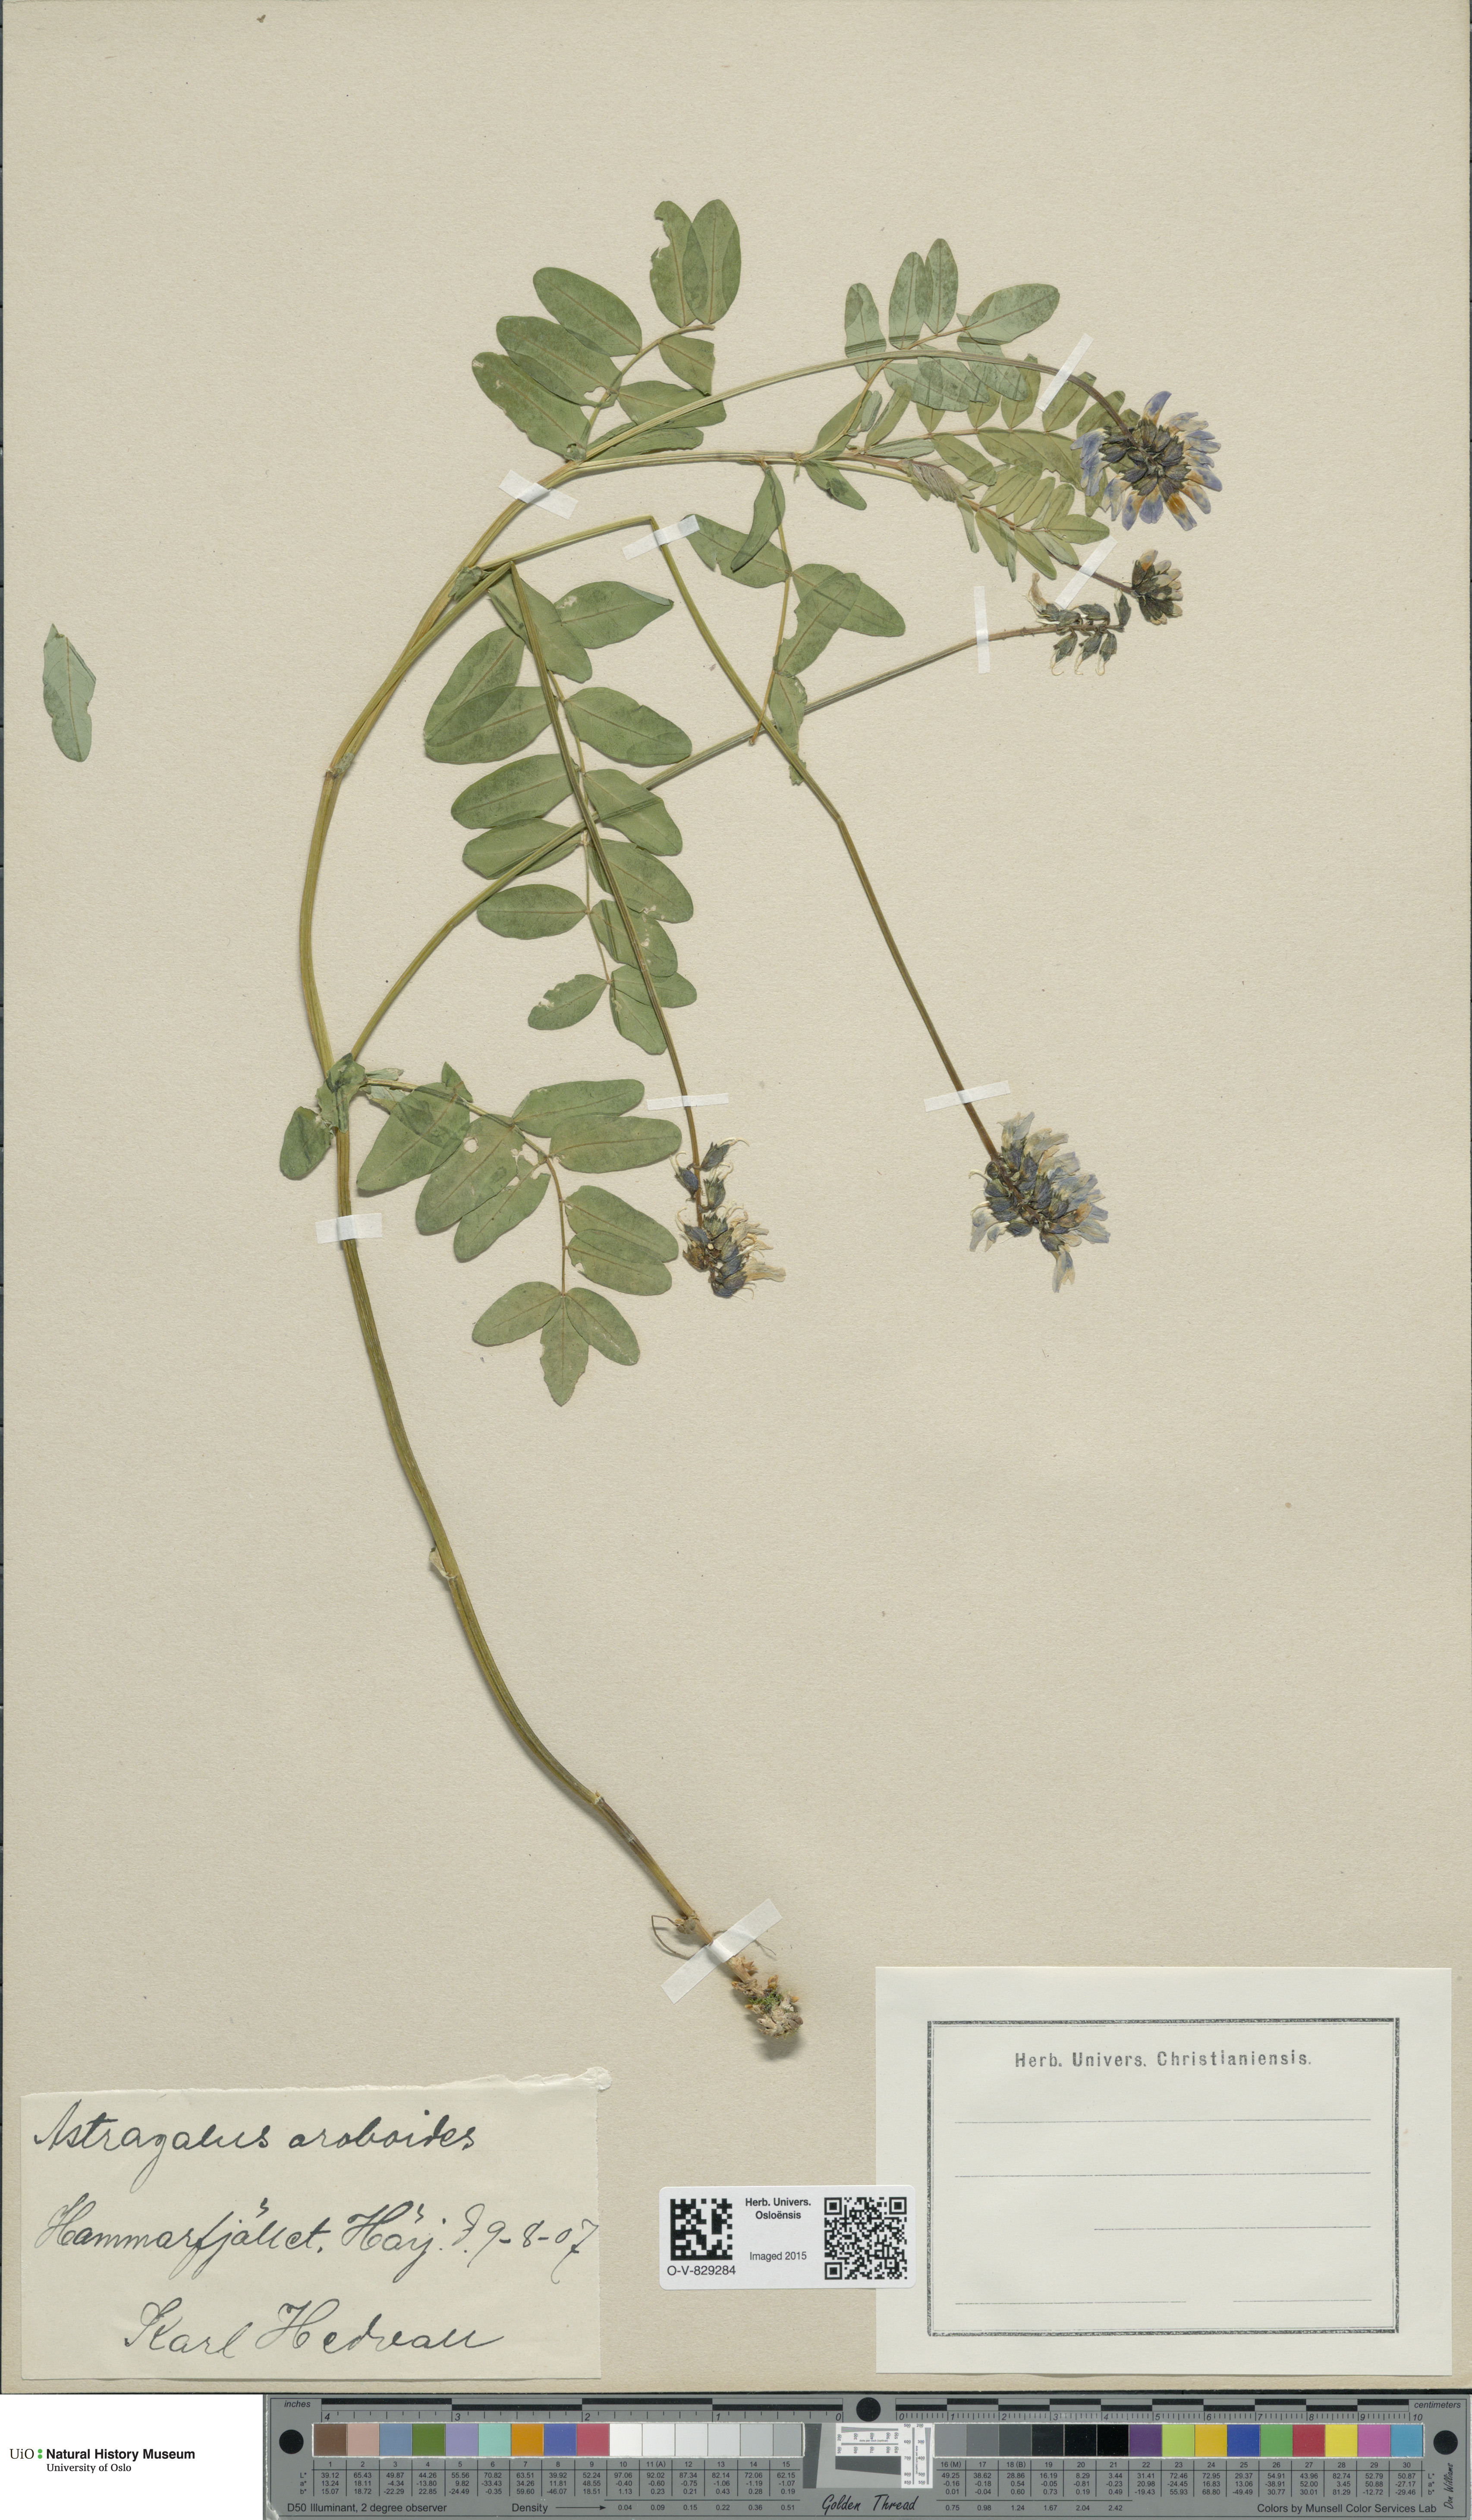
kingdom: Plantae
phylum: Tracheophyta
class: Magnoliopsida
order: Fabales
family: Fabaceae
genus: Astragalus
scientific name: Astragalus norvegicus
